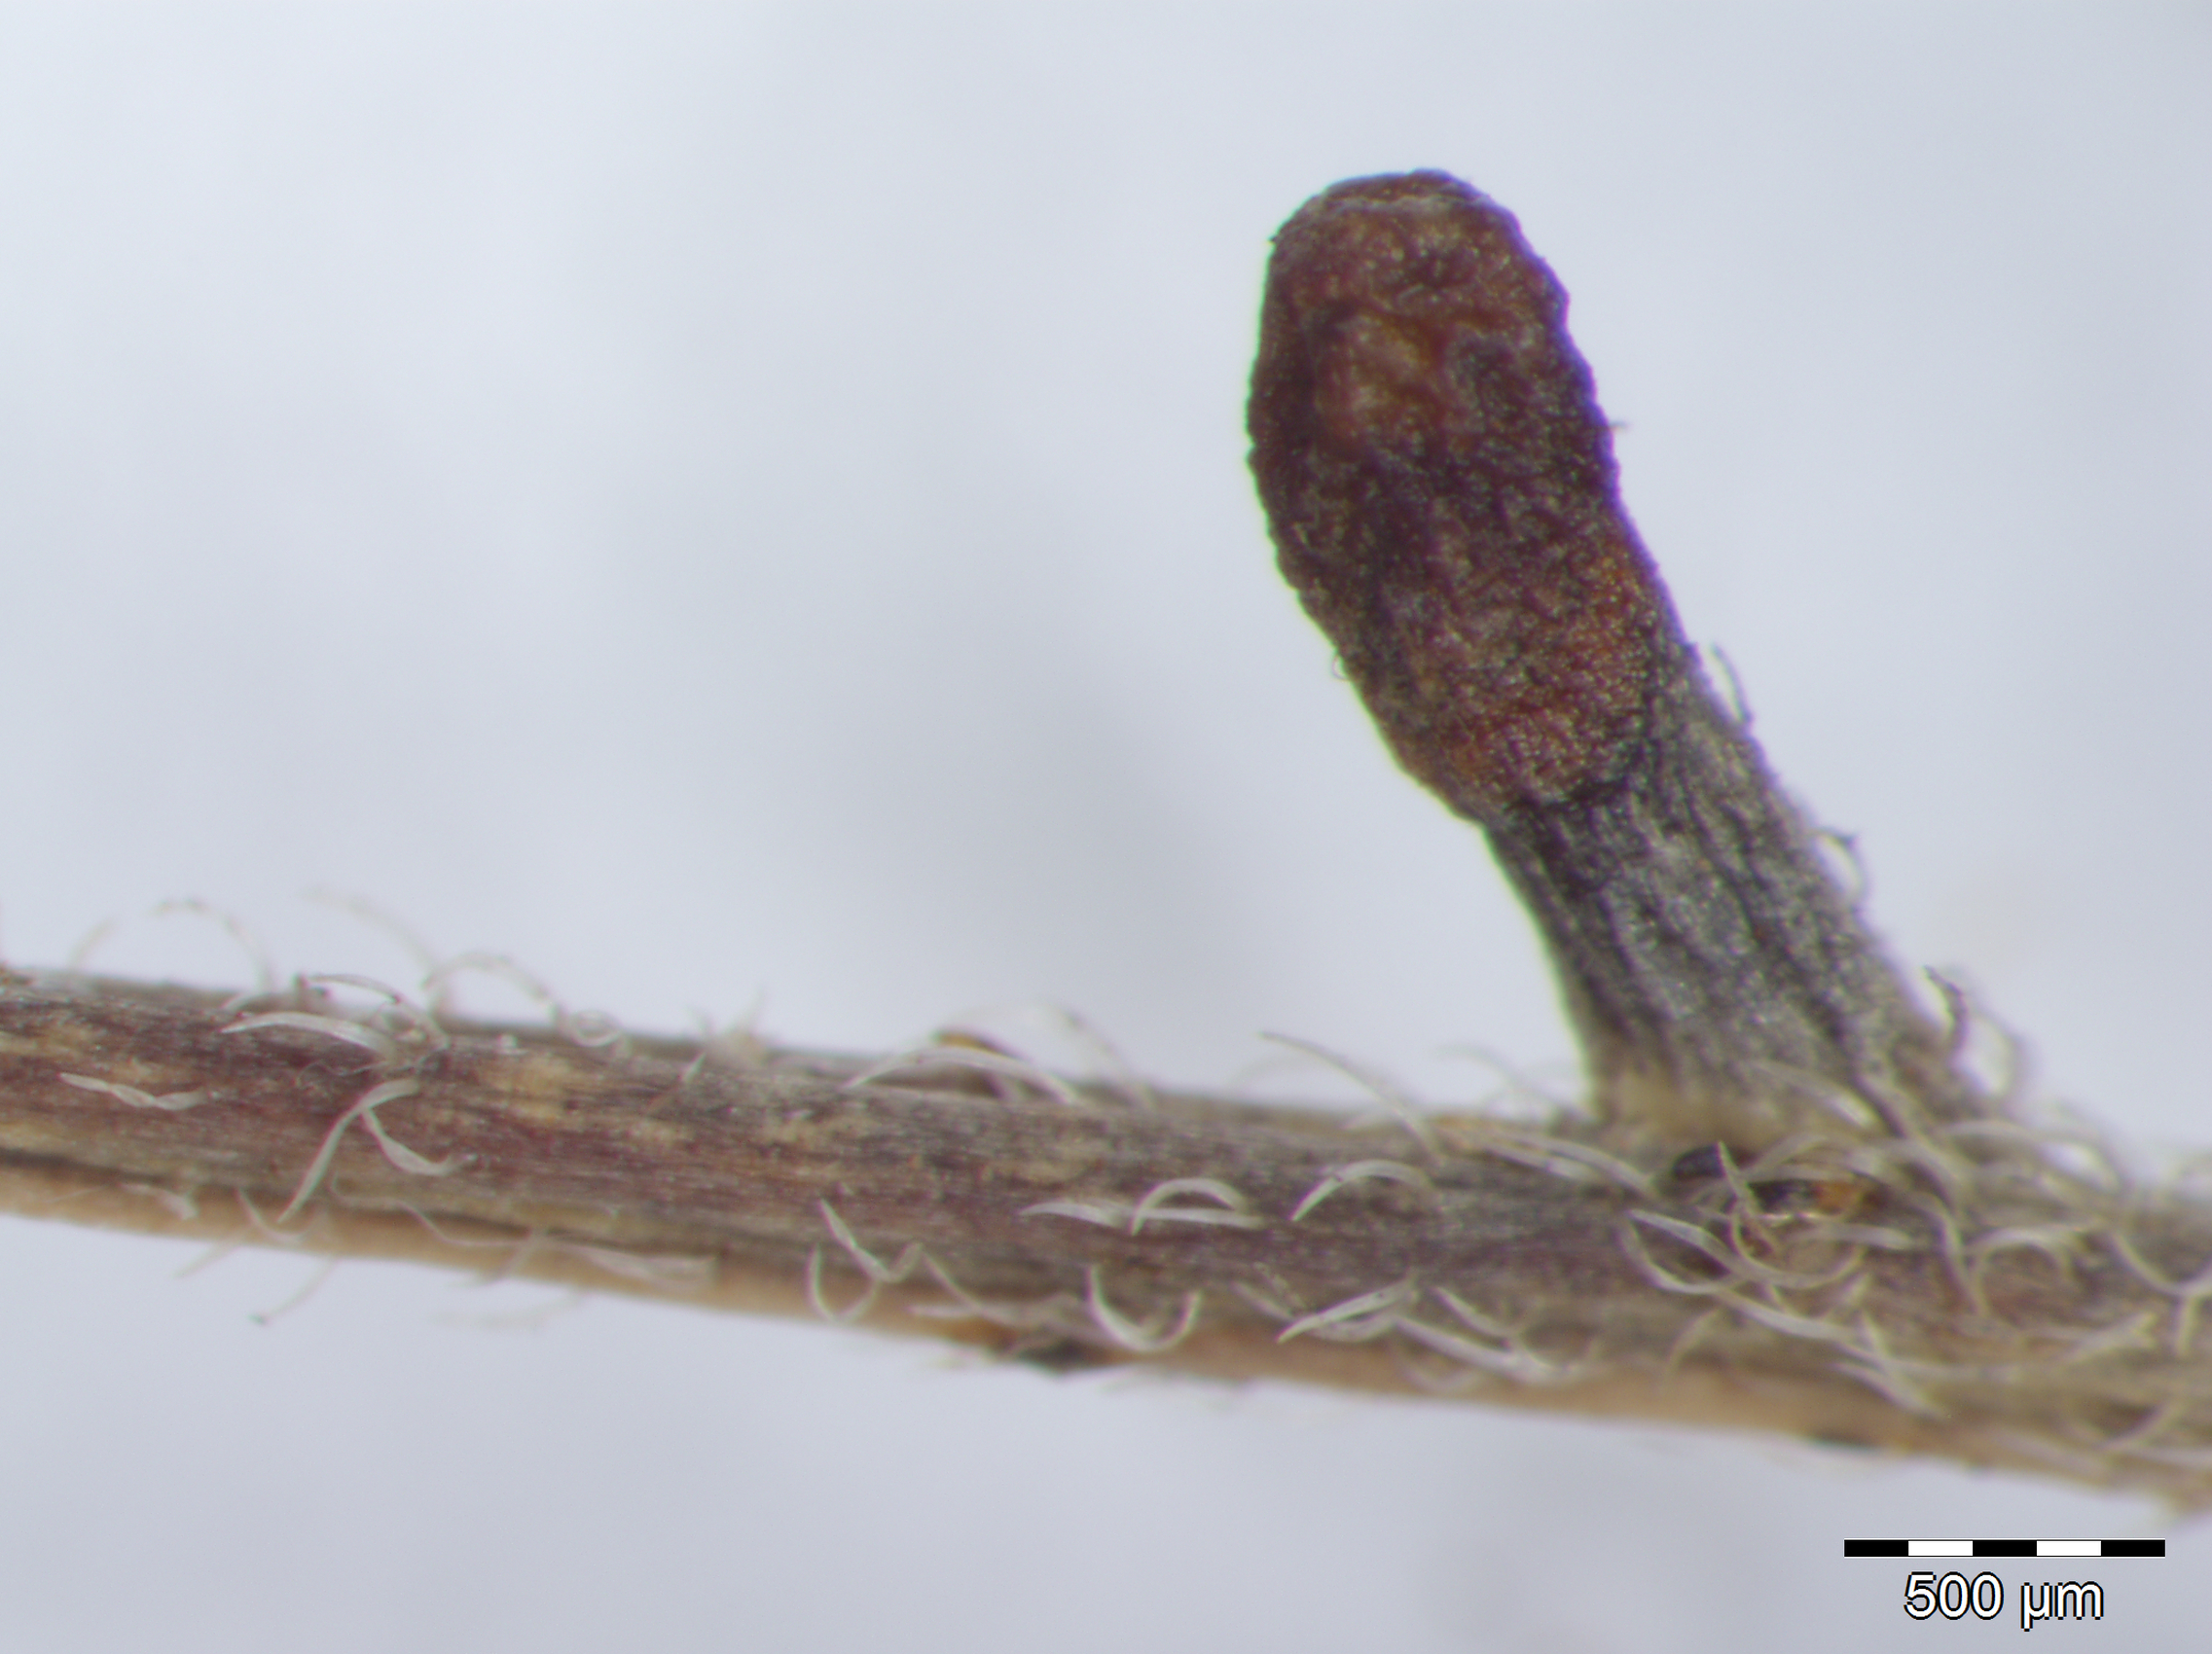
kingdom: Plantae
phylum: Tracheophyta
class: Magnoliopsida
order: Fabales
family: Fabaceae
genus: Senna
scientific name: Senna mexicana
